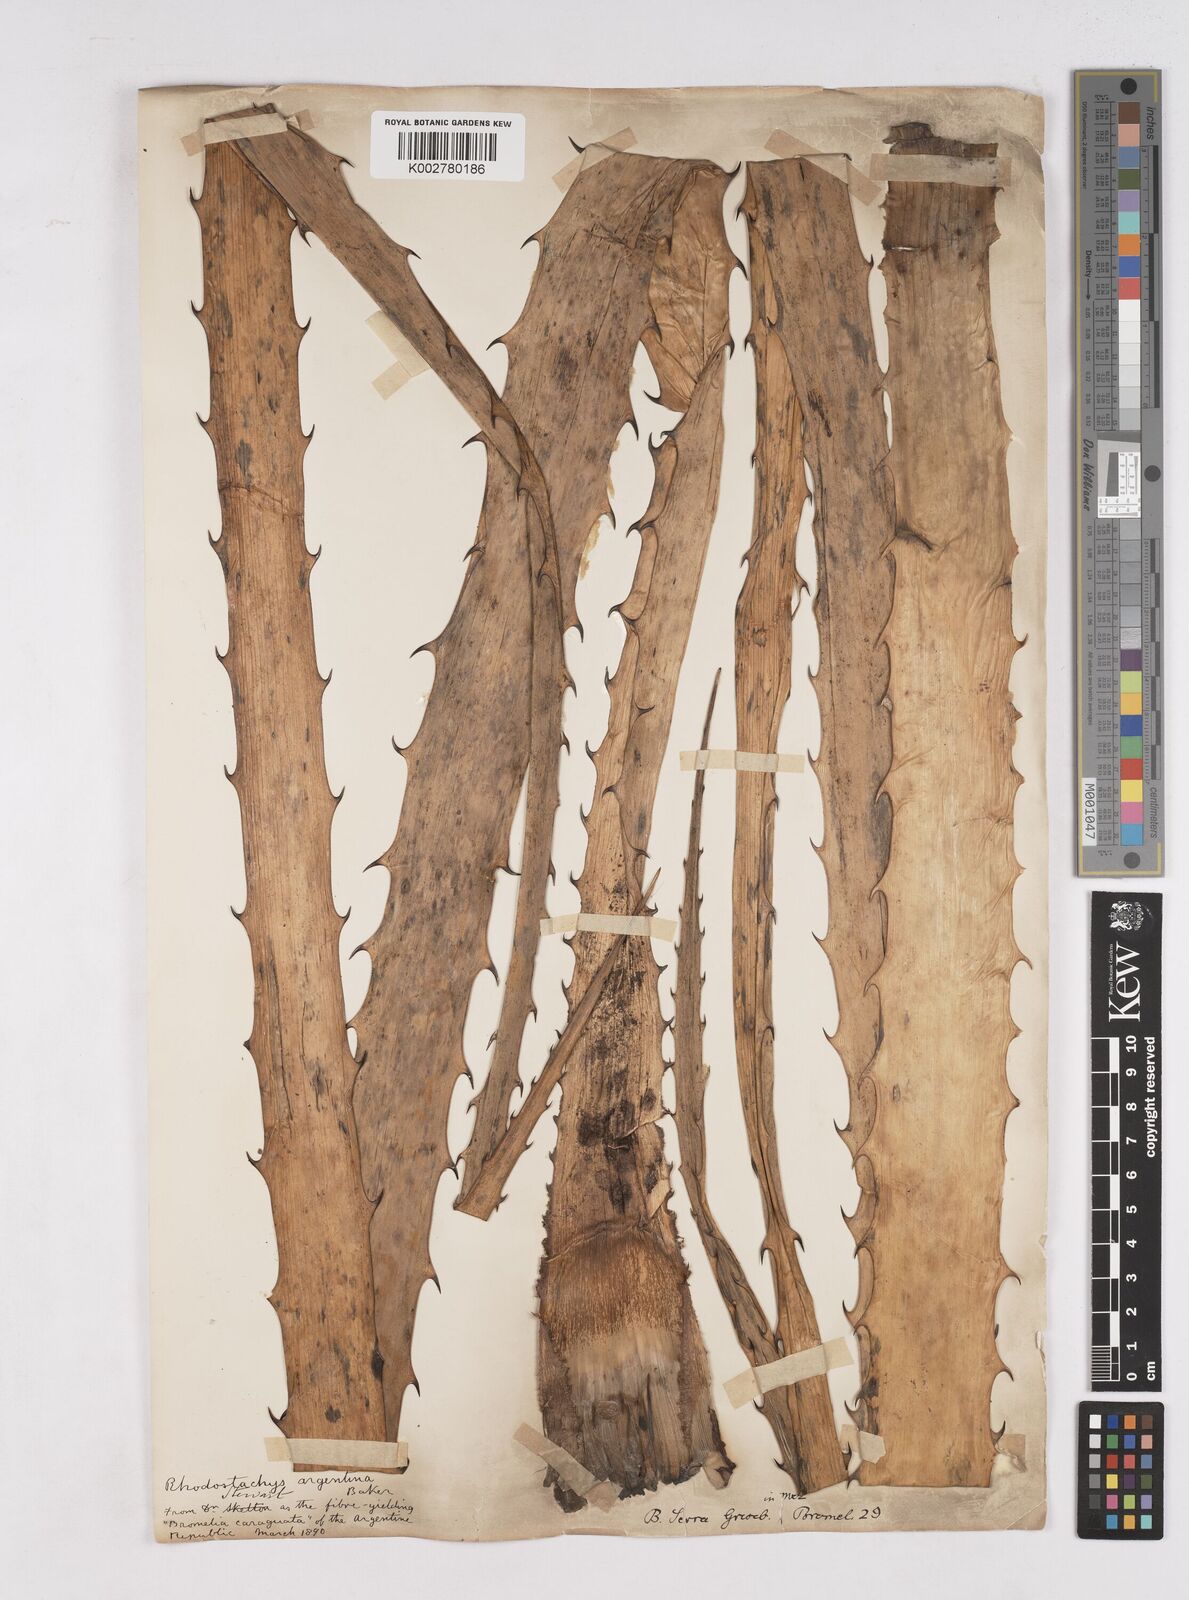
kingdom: Plantae
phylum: Tracheophyta
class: Liliopsida
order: Poales
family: Bromeliaceae
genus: Bromelia
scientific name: Bromelia serra
